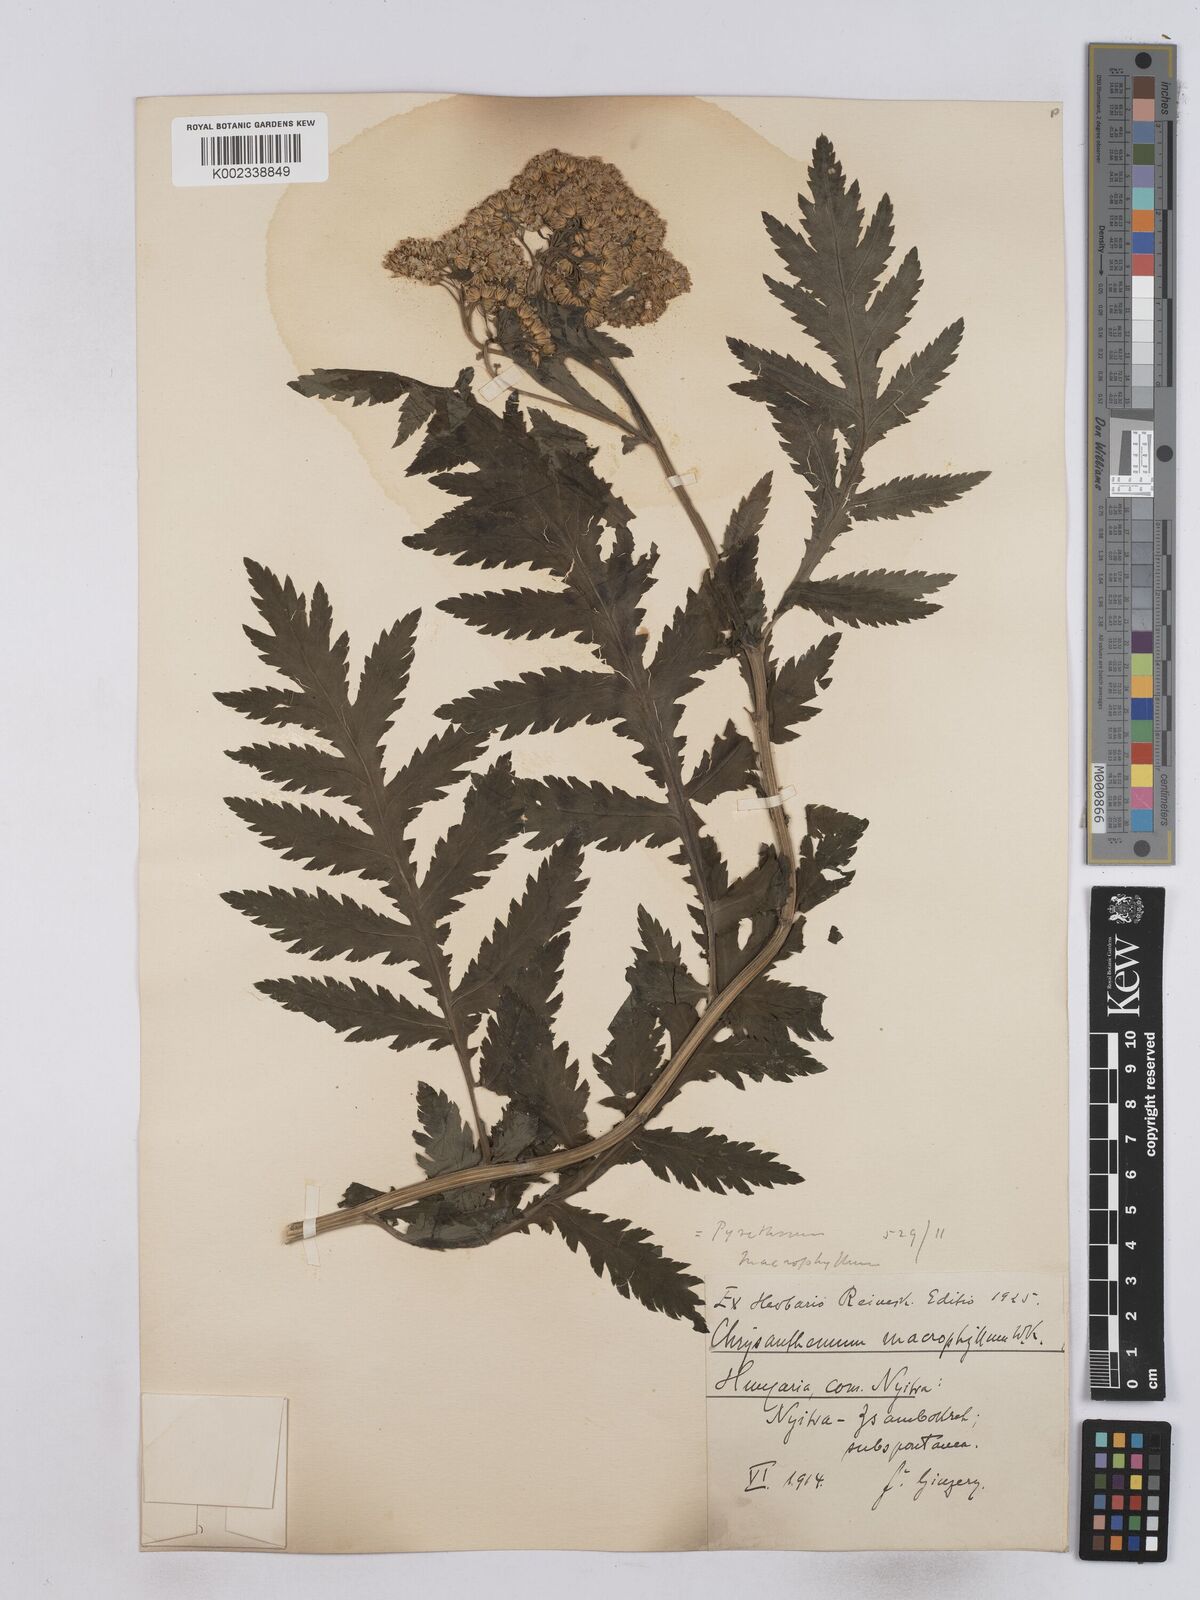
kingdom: Plantae
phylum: Tracheophyta
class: Magnoliopsida
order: Asterales
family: Asteraceae
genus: Tanacetum
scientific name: Tanacetum macrophyllum
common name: Rayed tansy
